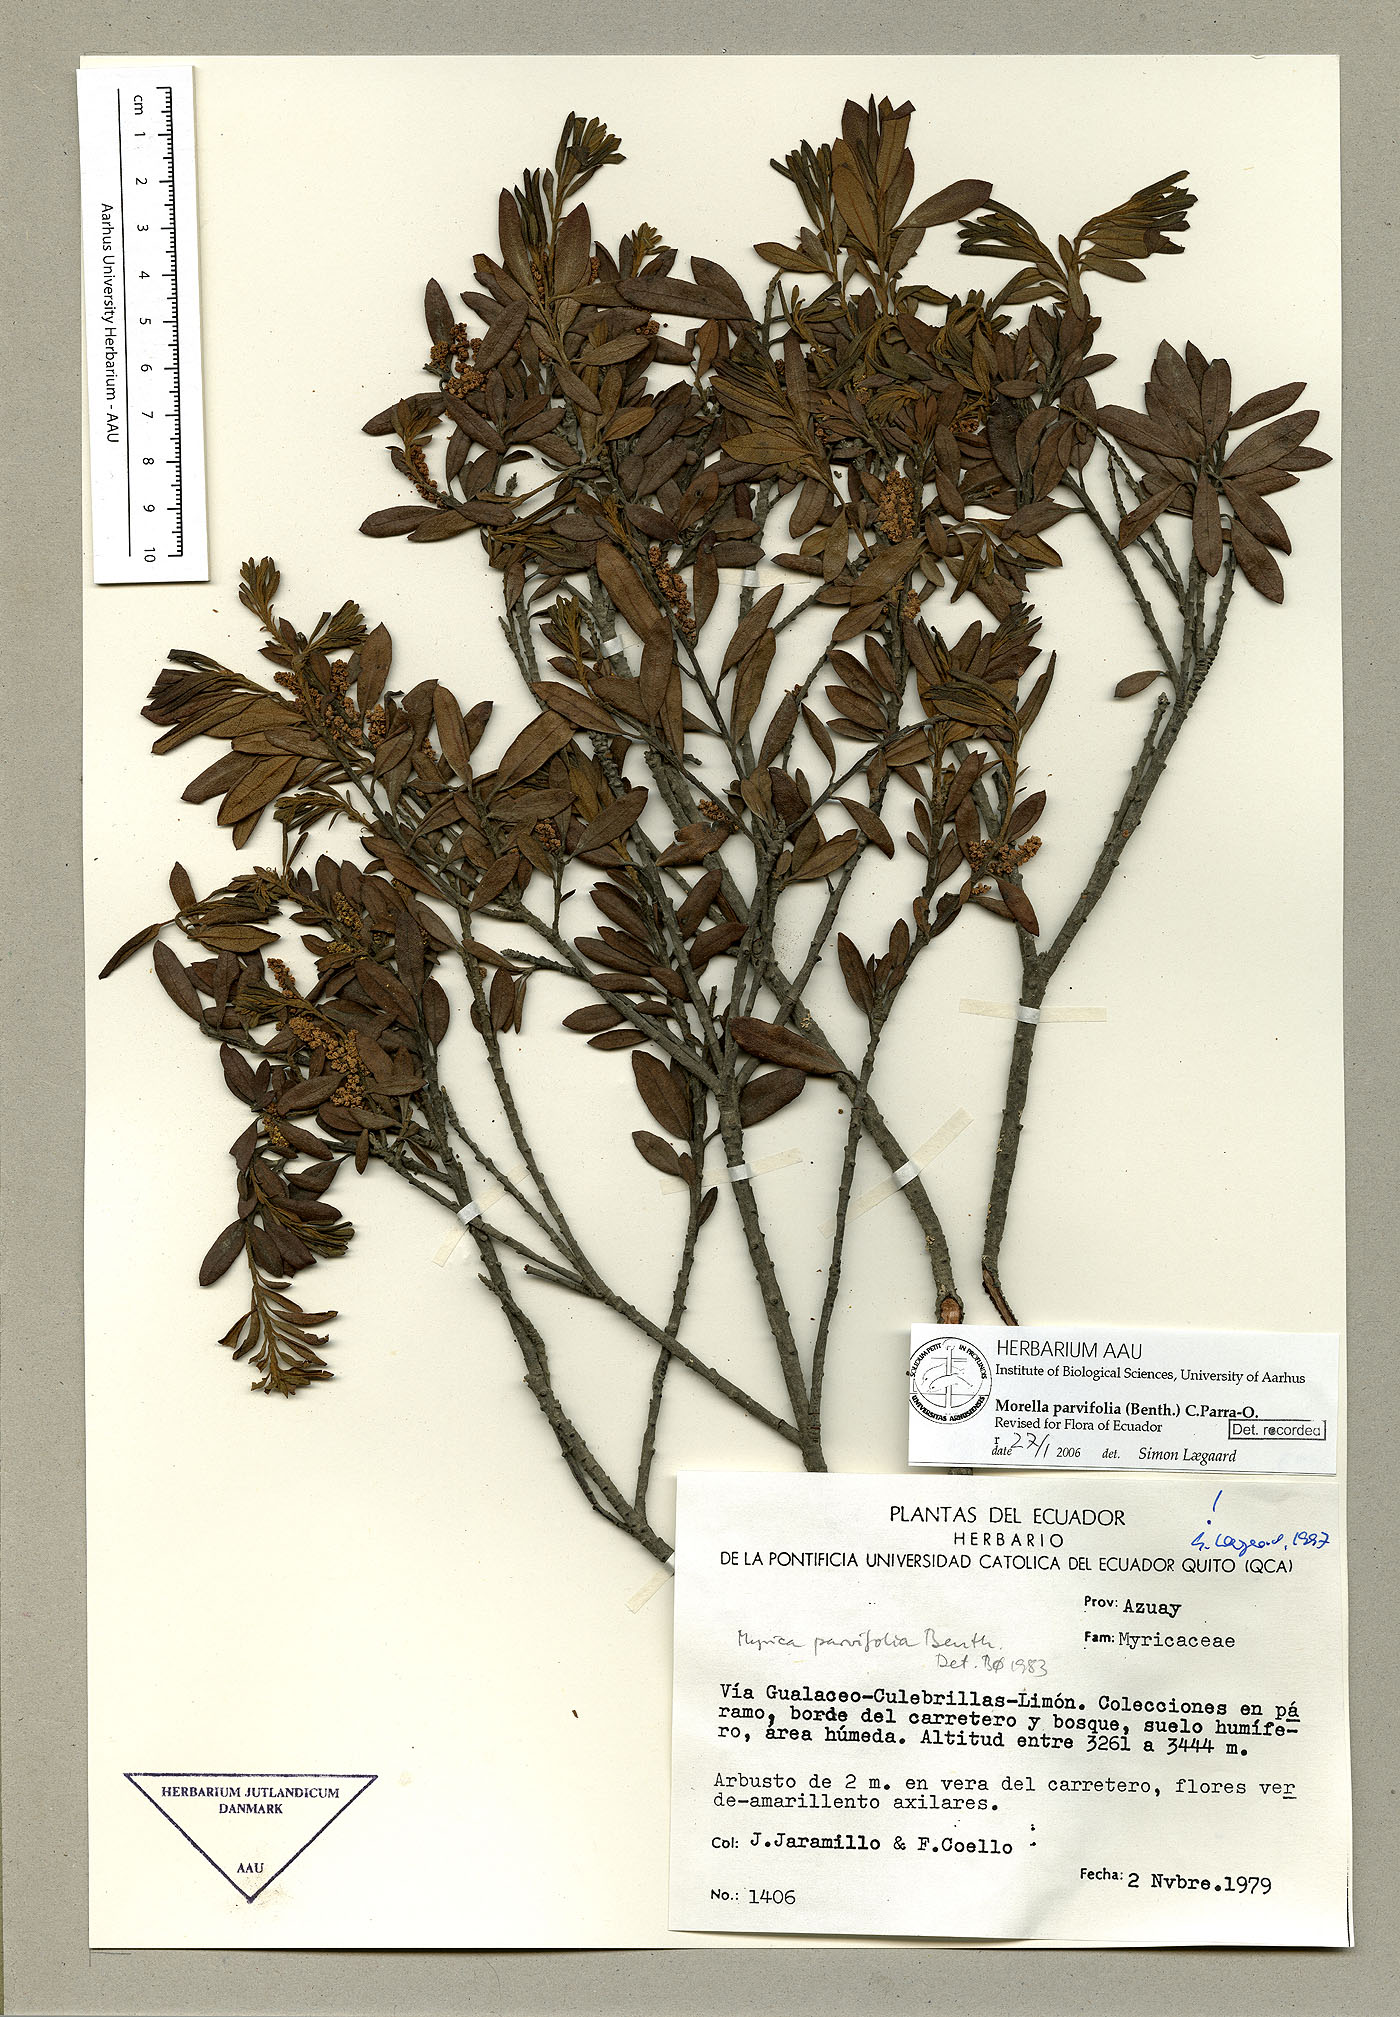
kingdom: Plantae
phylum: Tracheophyta
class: Magnoliopsida
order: Fagales
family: Myricaceae
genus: Morella
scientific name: Morella parvifolia
